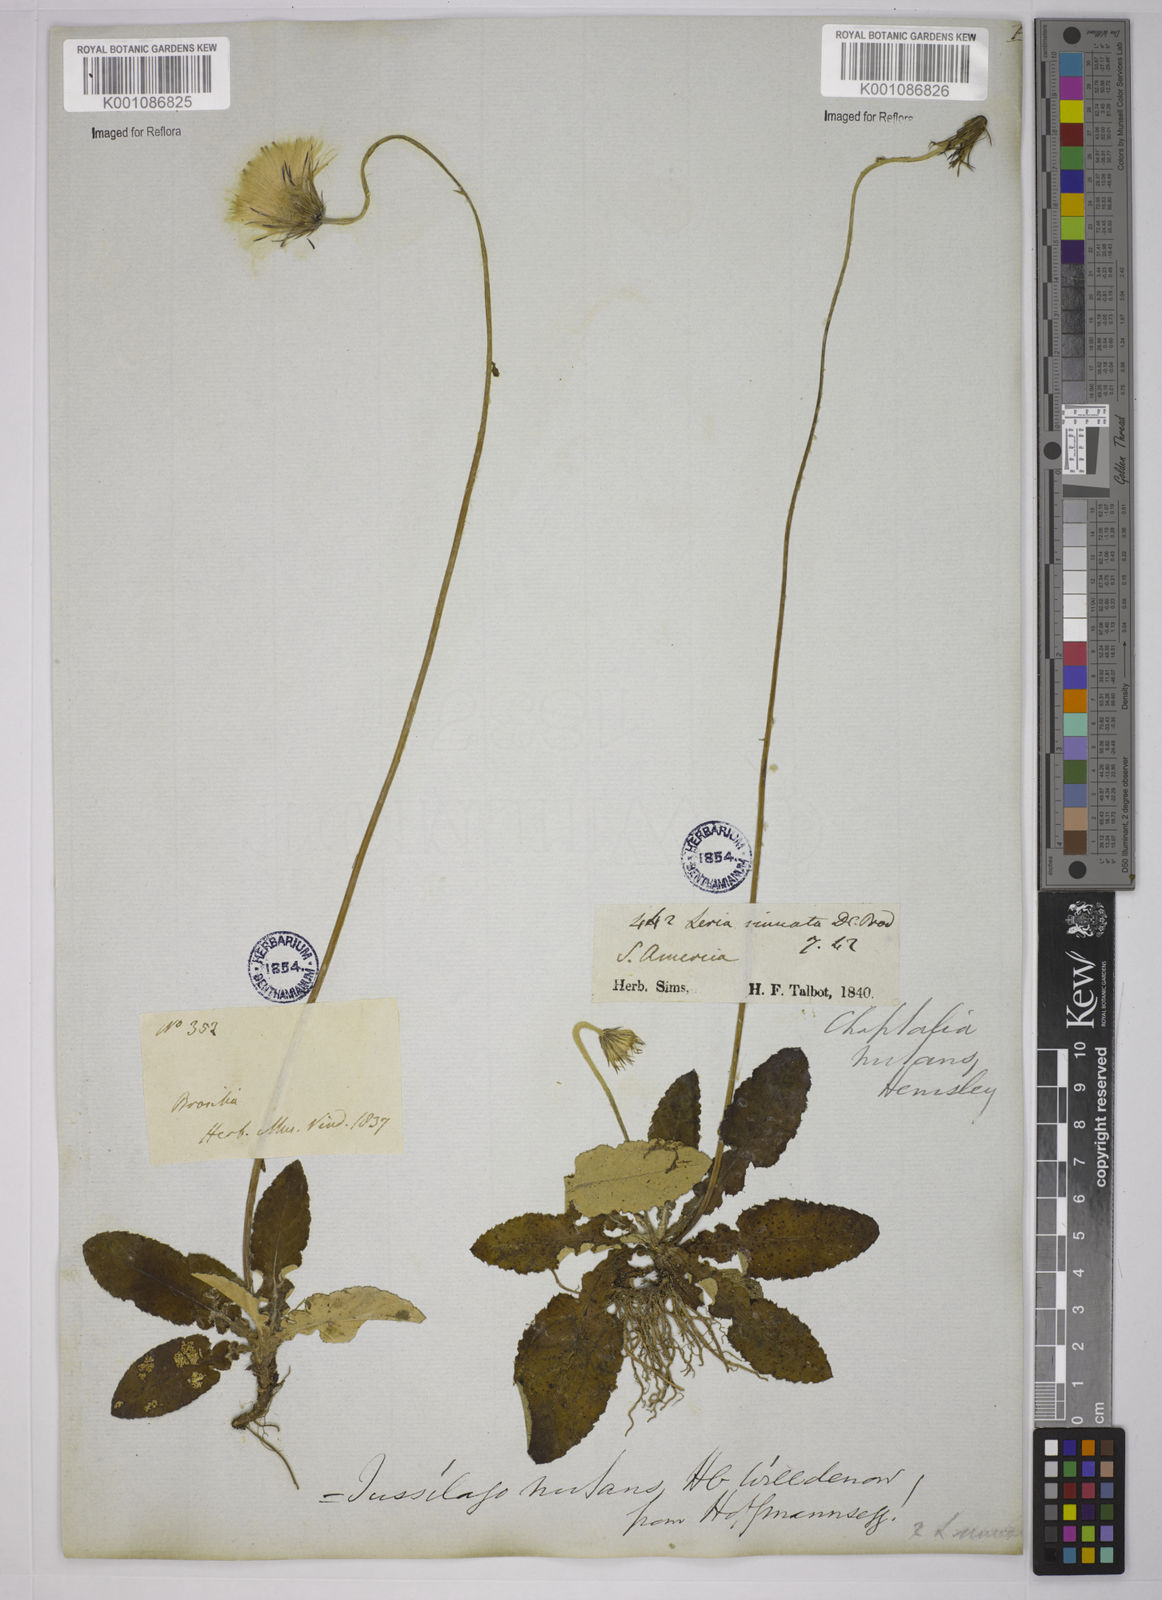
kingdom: Plantae
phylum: Tracheophyta
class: Magnoliopsida
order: Asterales
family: Asteraceae
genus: Chaptalia
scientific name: Chaptalia nutans
